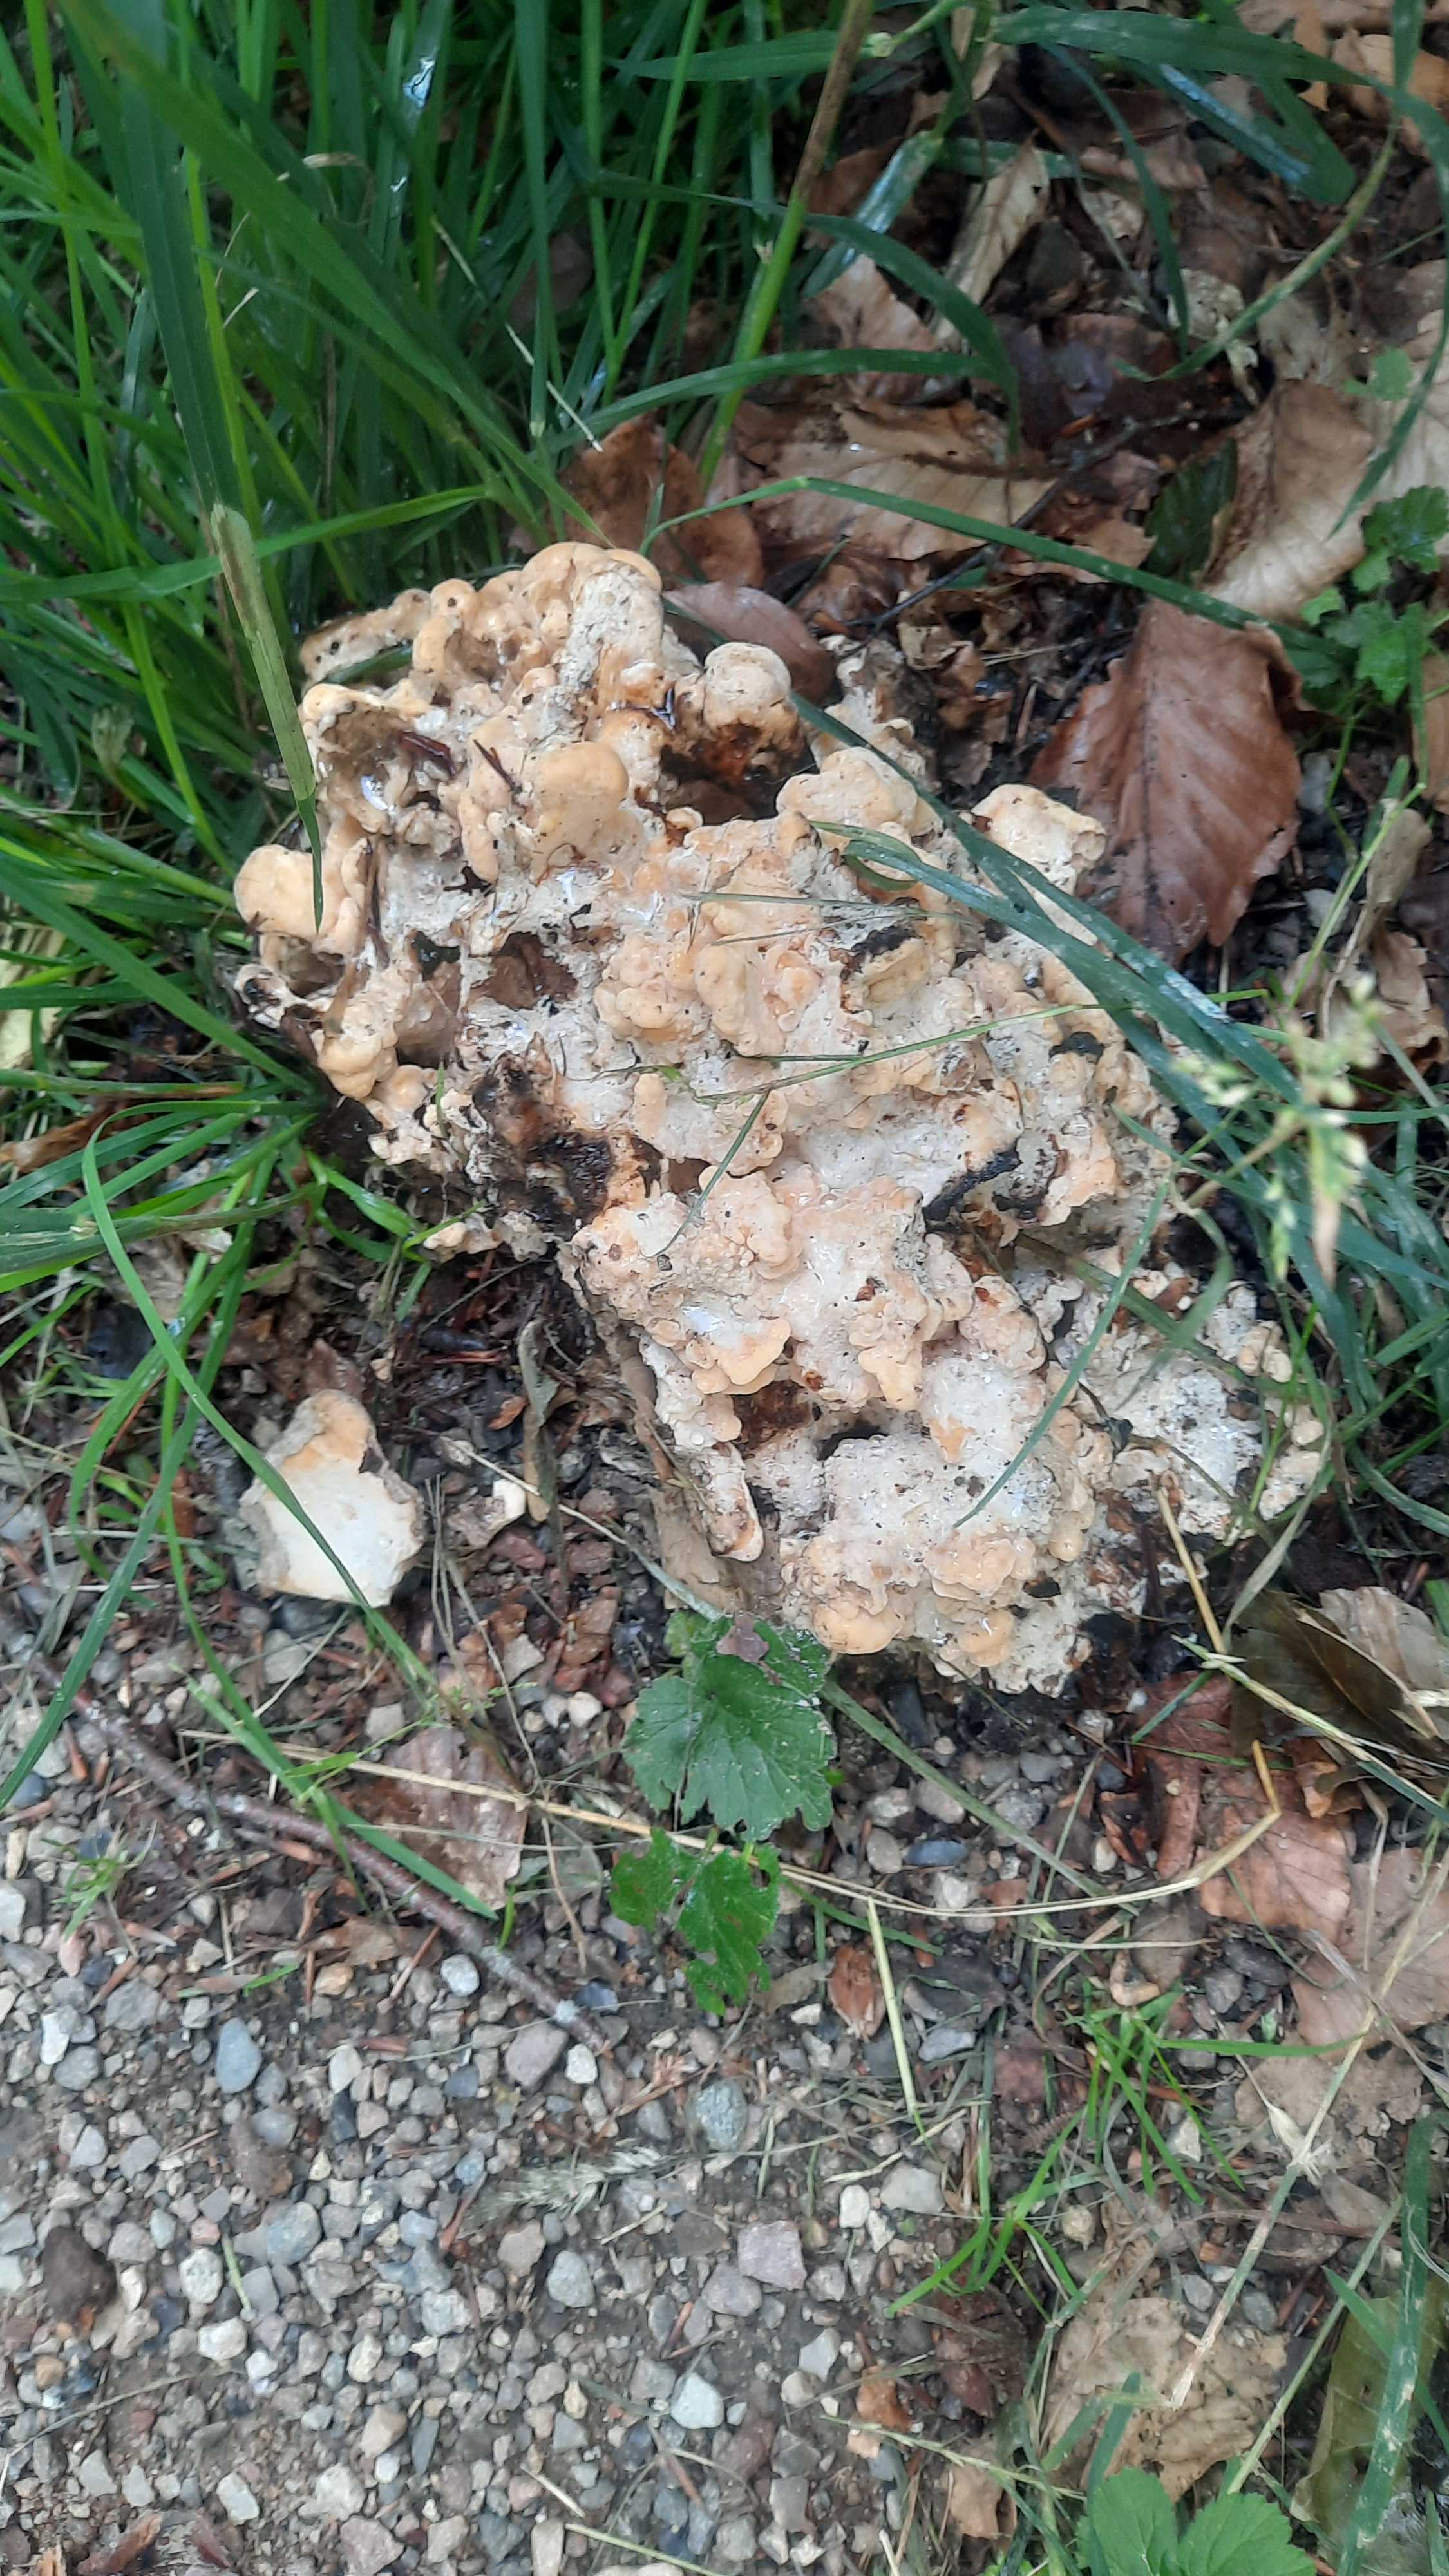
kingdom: Fungi
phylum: Basidiomycota
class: Agaricomycetes
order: Polyporales
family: Meripilaceae
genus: Meripilus
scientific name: Meripilus giganteus
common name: kæmpeporesvamp
